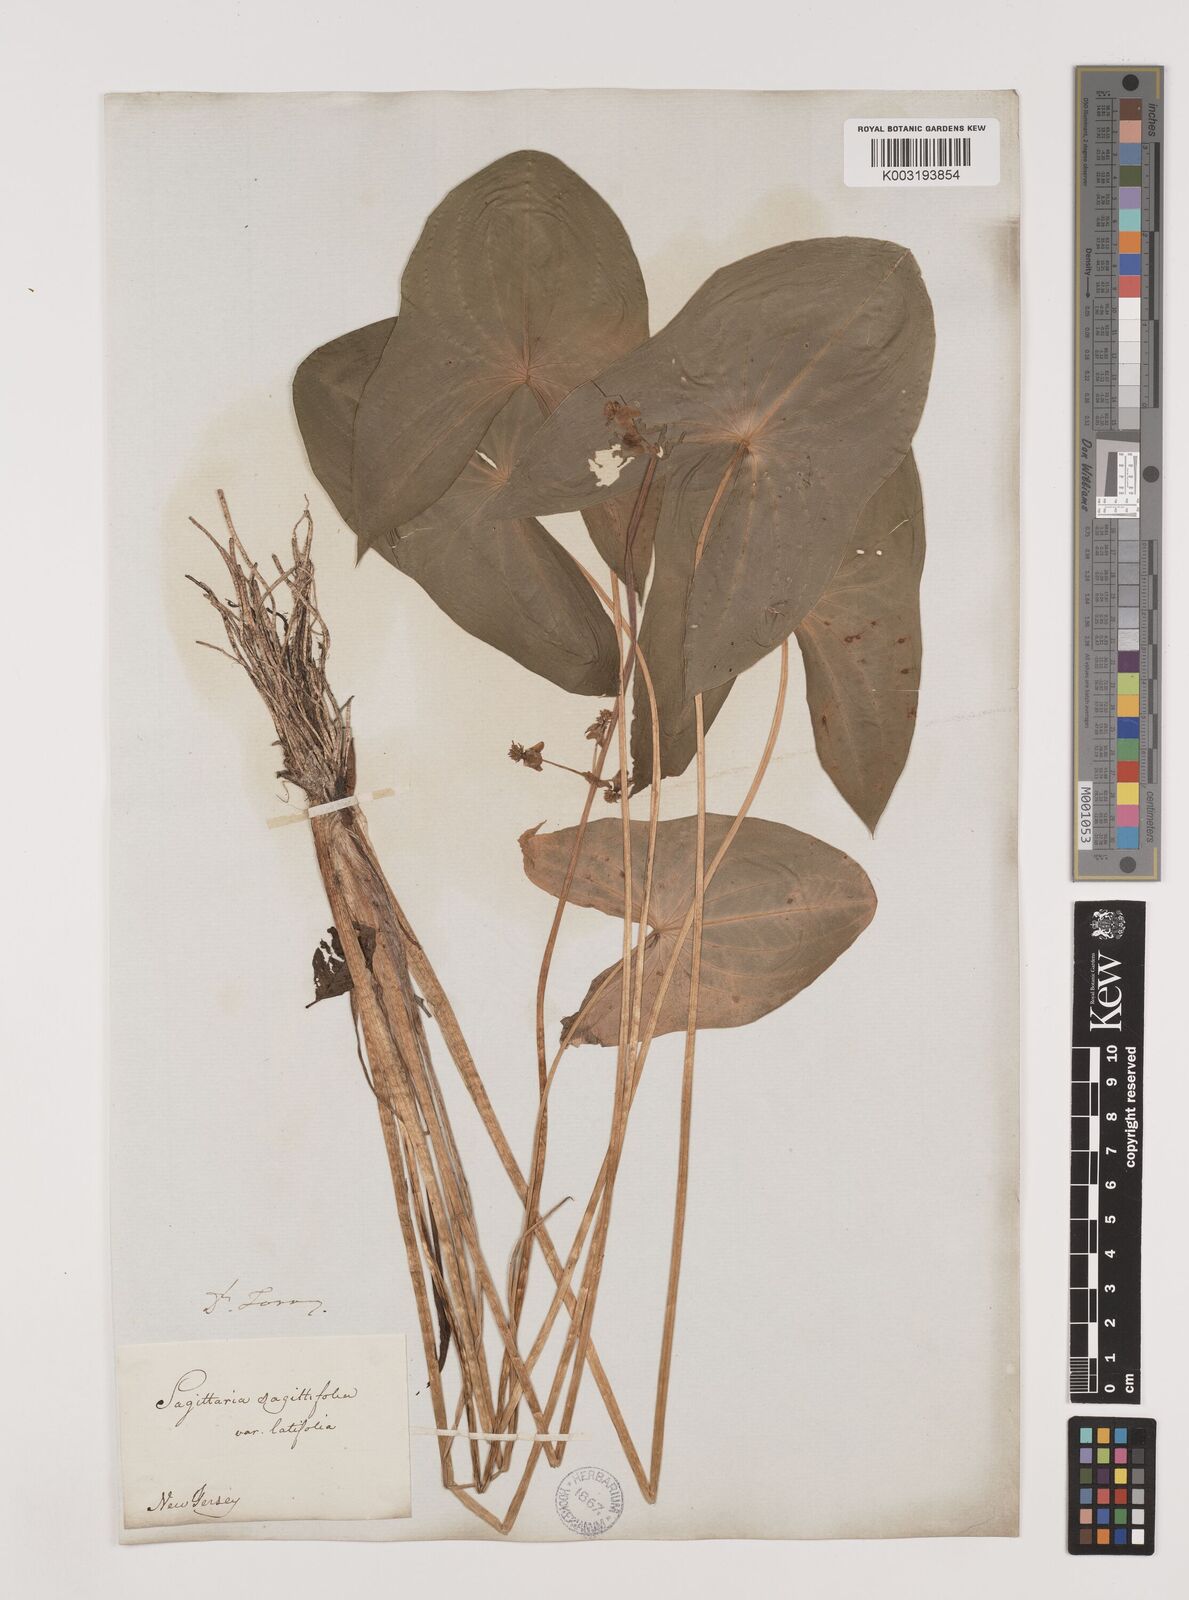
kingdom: Plantae
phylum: Tracheophyta
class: Liliopsida
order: Alismatales
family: Alismataceae
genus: Sagittaria
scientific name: Sagittaria latifolia
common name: Duck-potato
